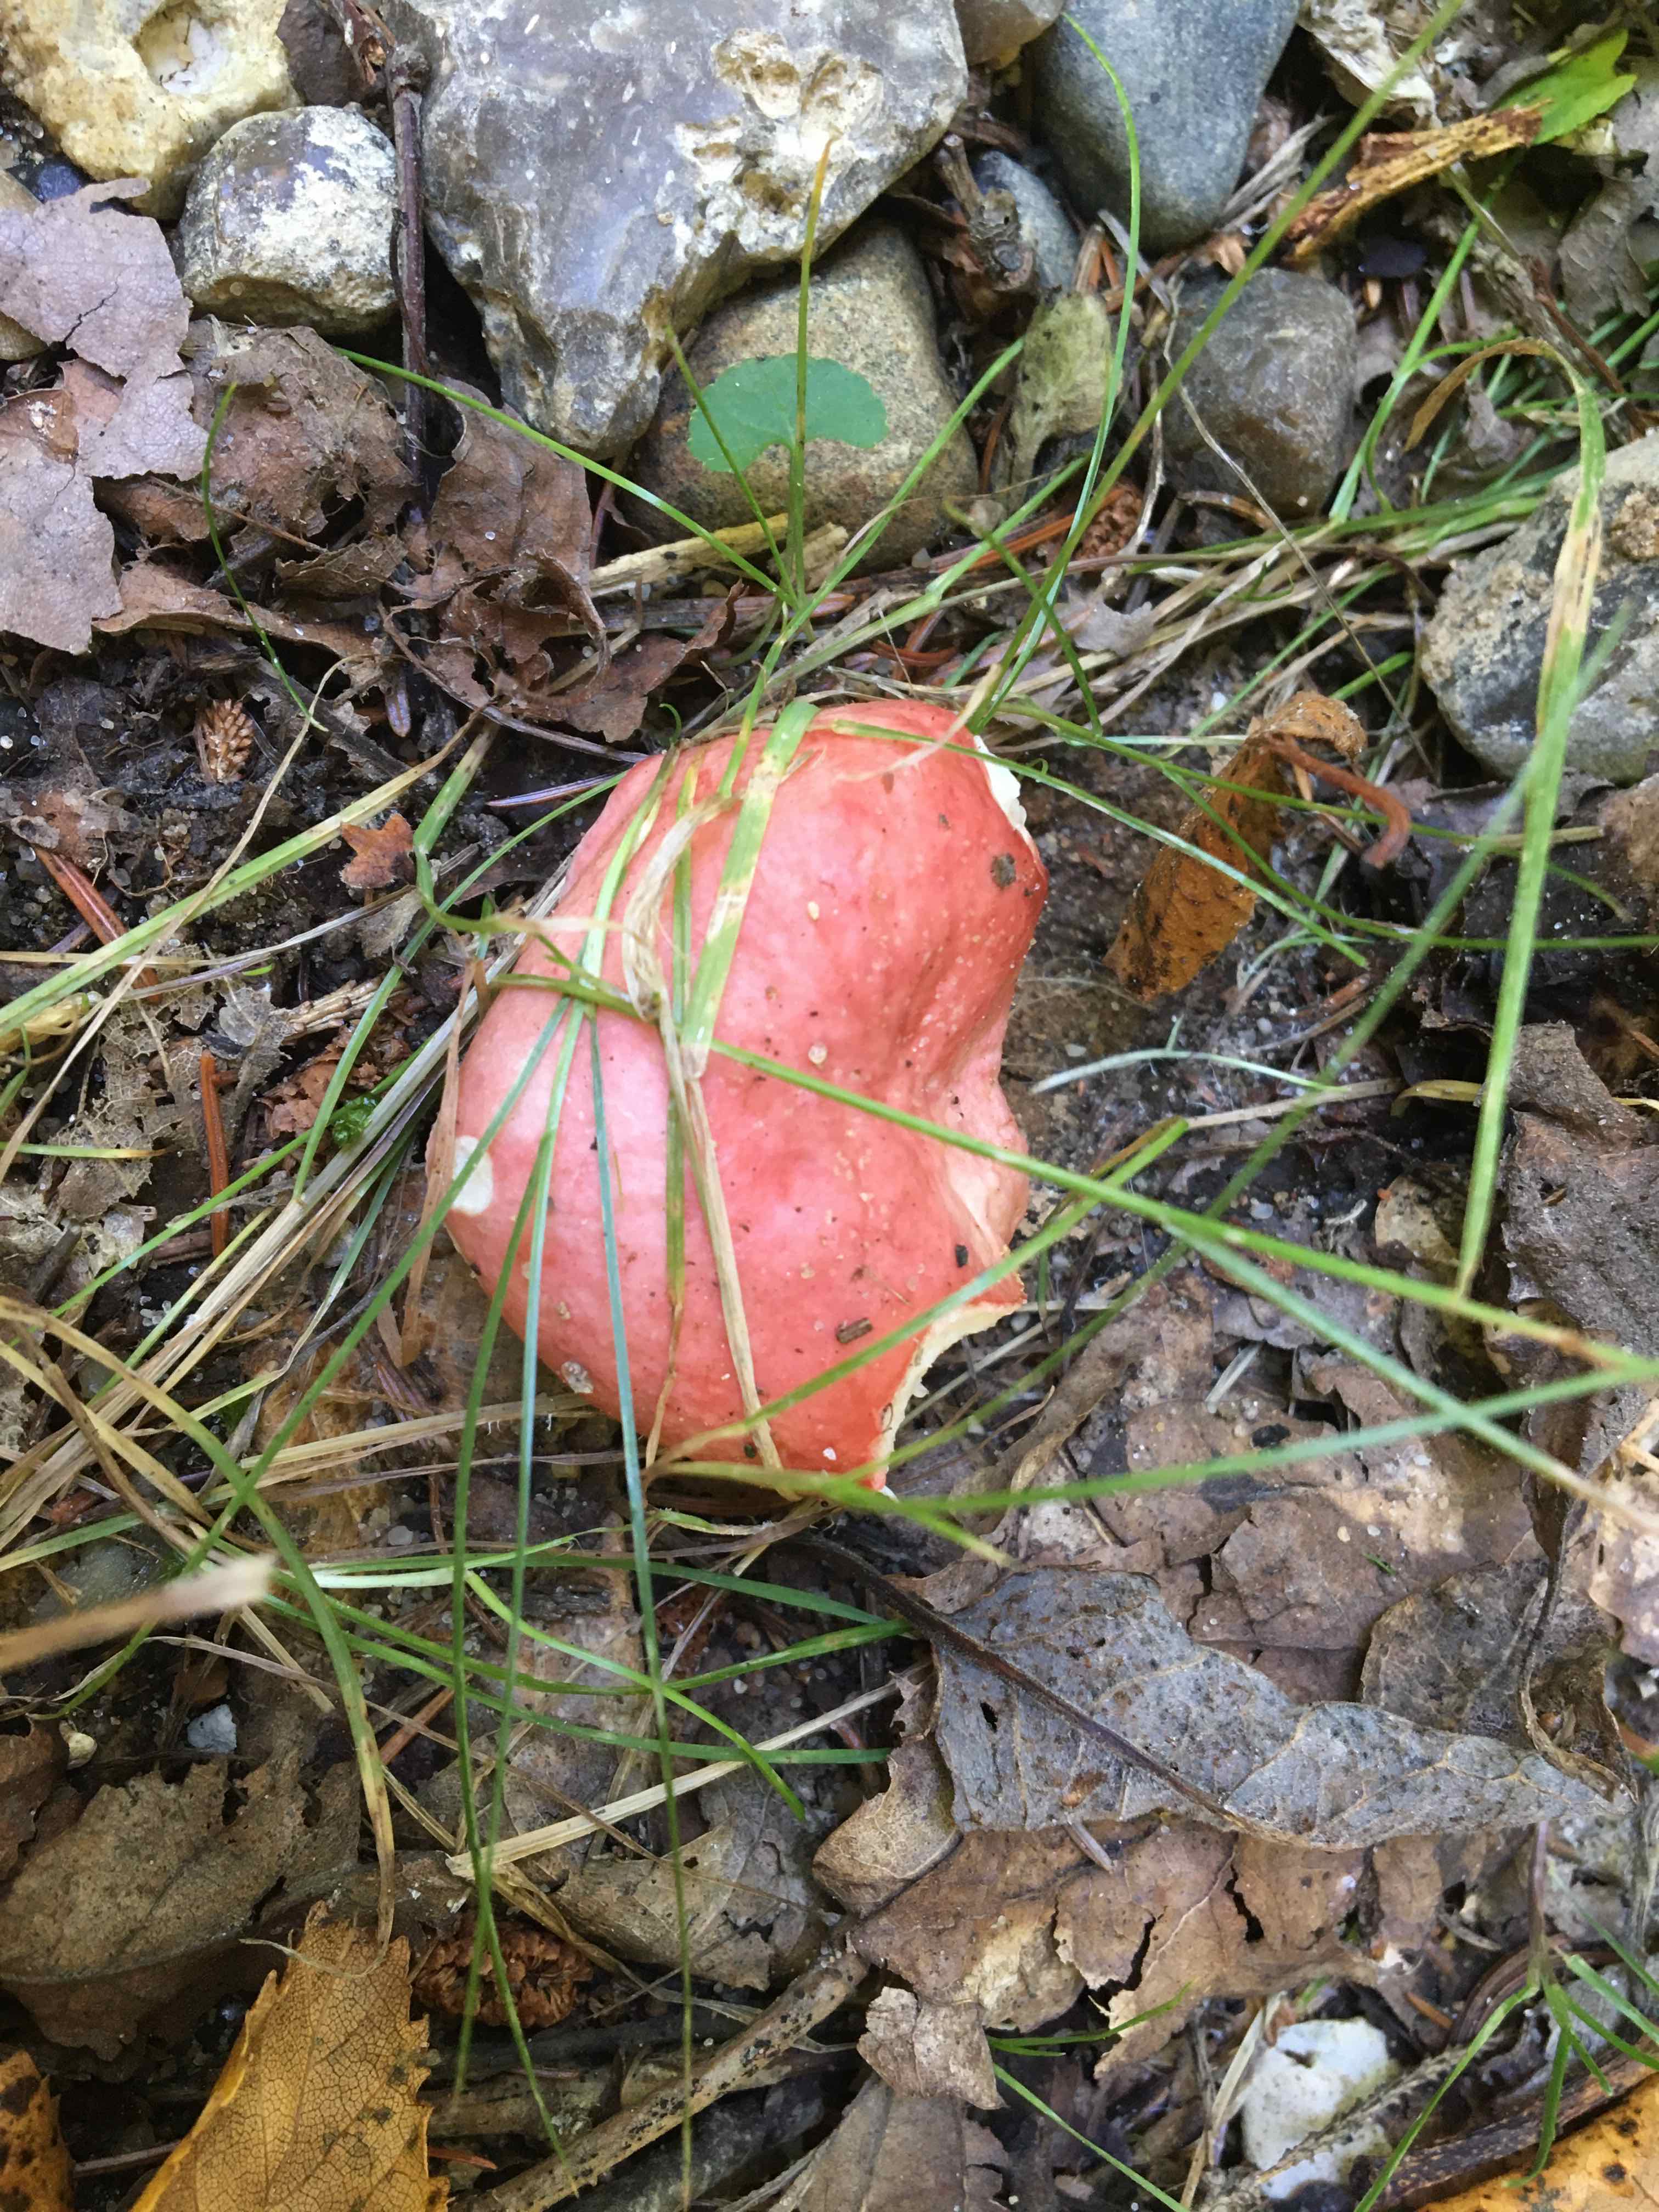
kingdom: Fungi
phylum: Basidiomycota
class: Agaricomycetes
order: Russulales
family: Russulaceae
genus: Russula
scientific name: Russula
